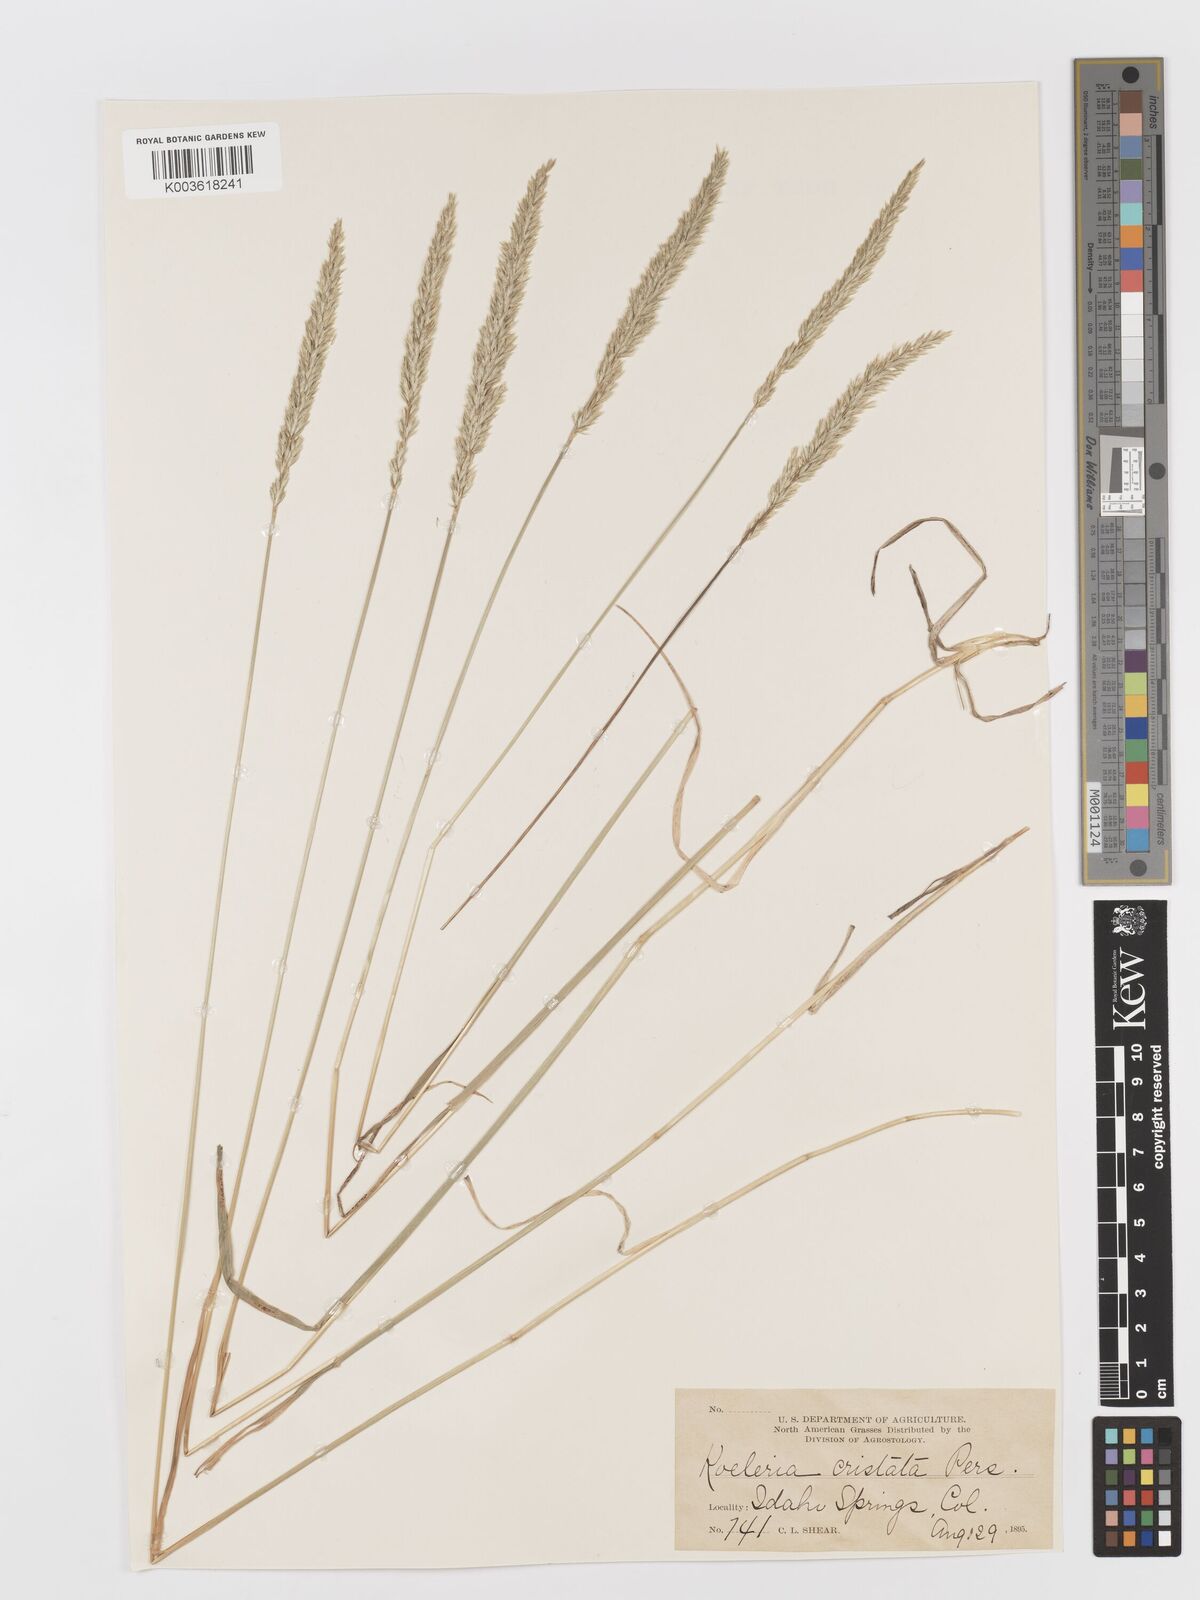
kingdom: Plantae
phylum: Tracheophyta
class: Liliopsida
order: Poales
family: Poaceae
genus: Koeleria
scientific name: Koeleria macrantha
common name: Crested hair-grass
